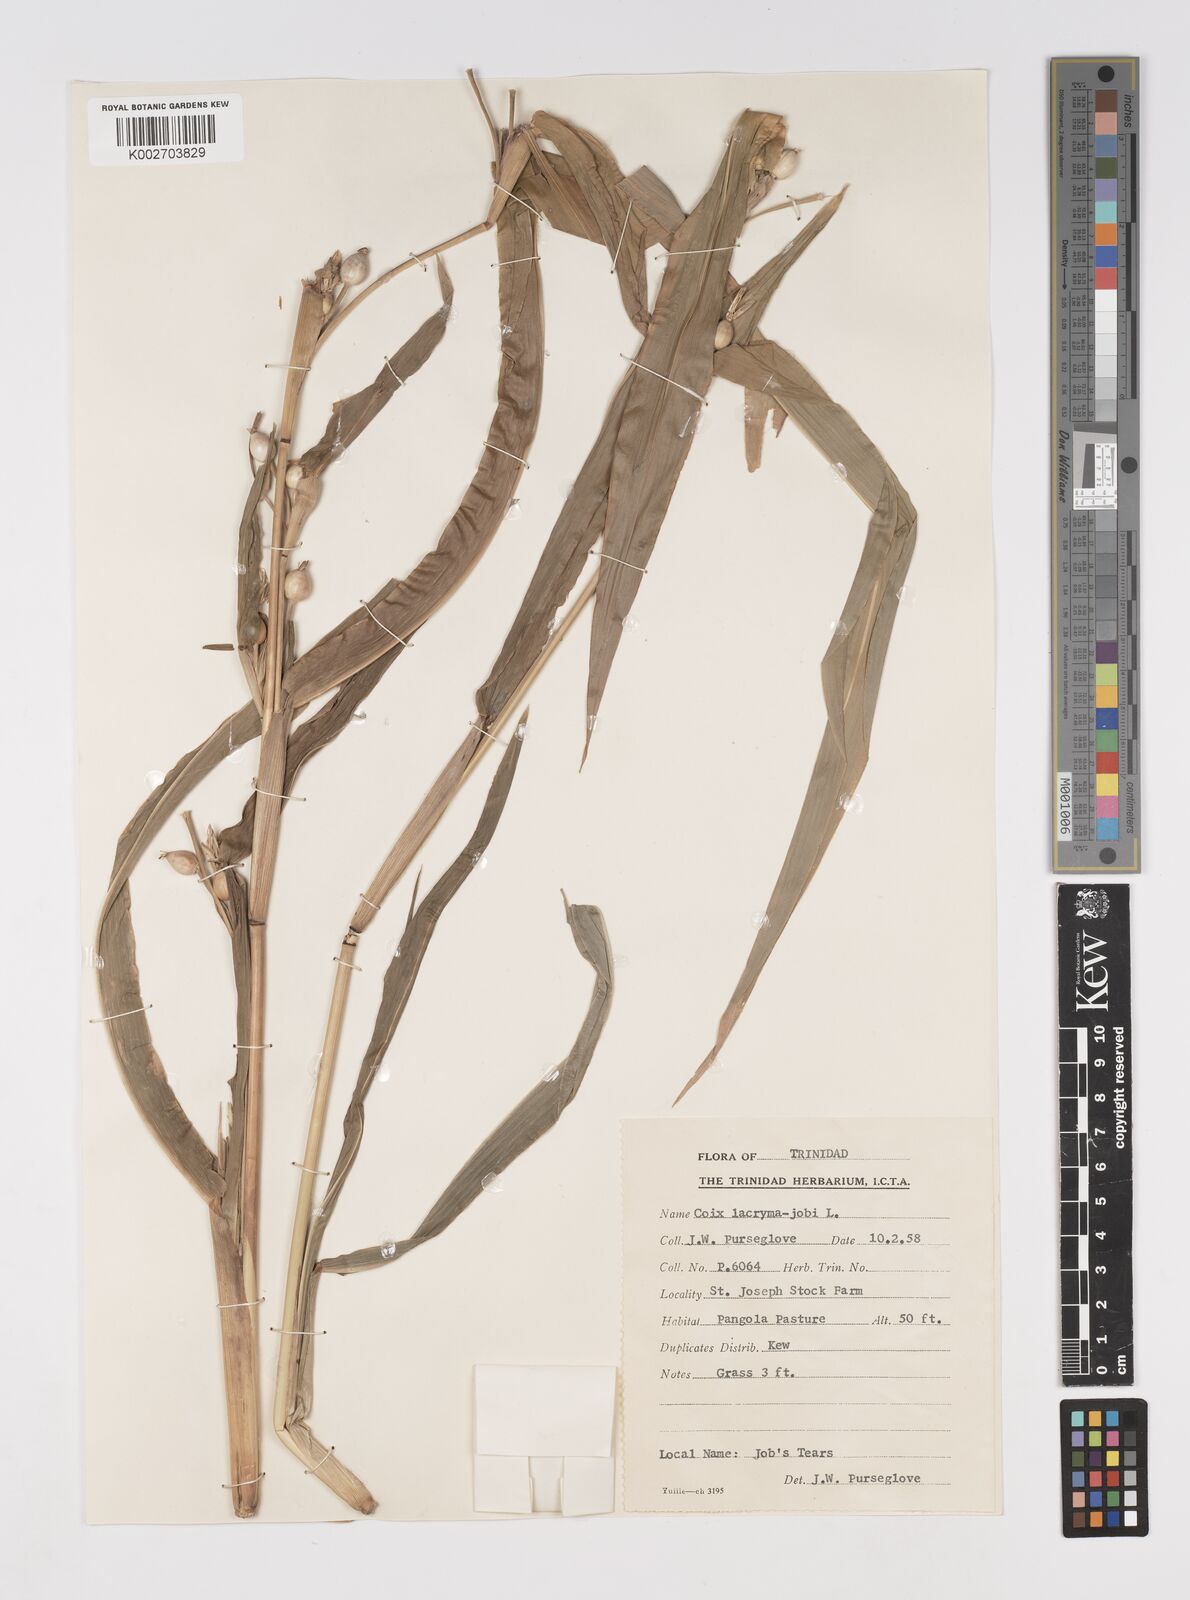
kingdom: Plantae
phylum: Tracheophyta
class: Liliopsida
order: Poales
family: Poaceae
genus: Coix
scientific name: Coix lacryma-jobi
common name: Job's tears
